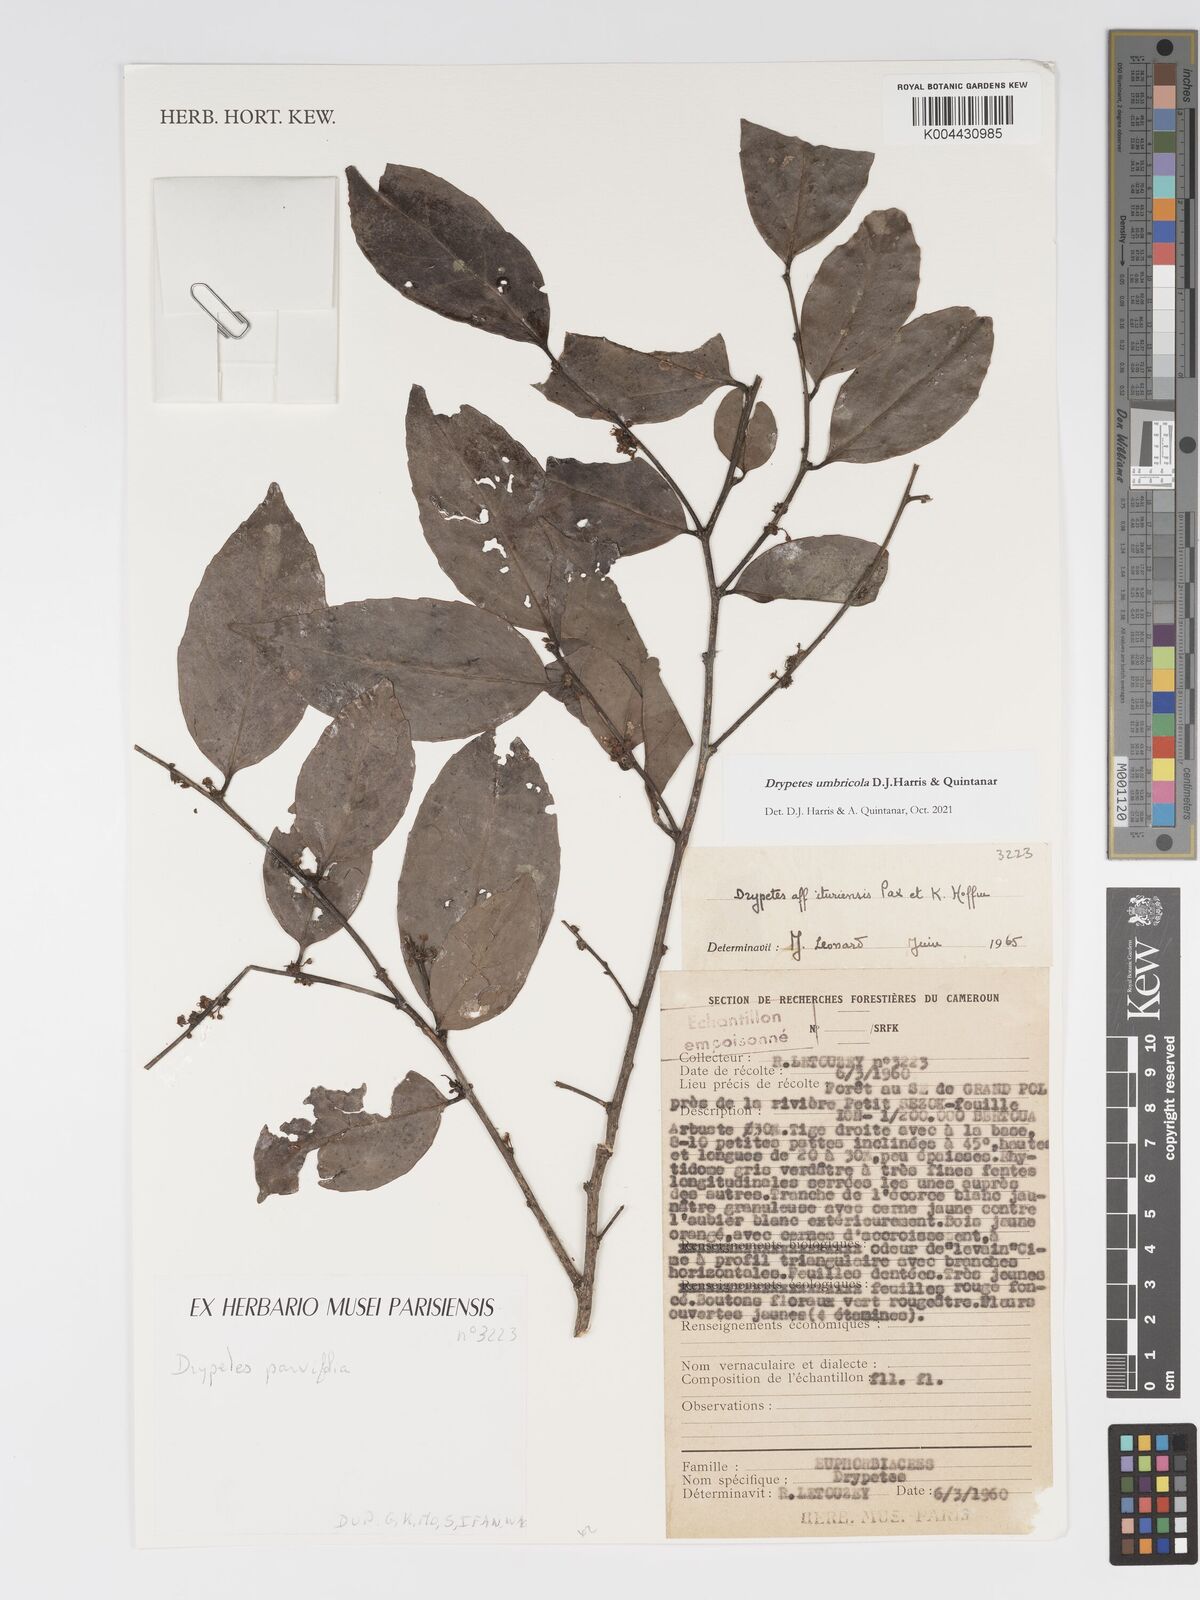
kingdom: Plantae
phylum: Tracheophyta
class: Magnoliopsida
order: Malpighiales
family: Putranjivaceae
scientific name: Putranjivaceae
